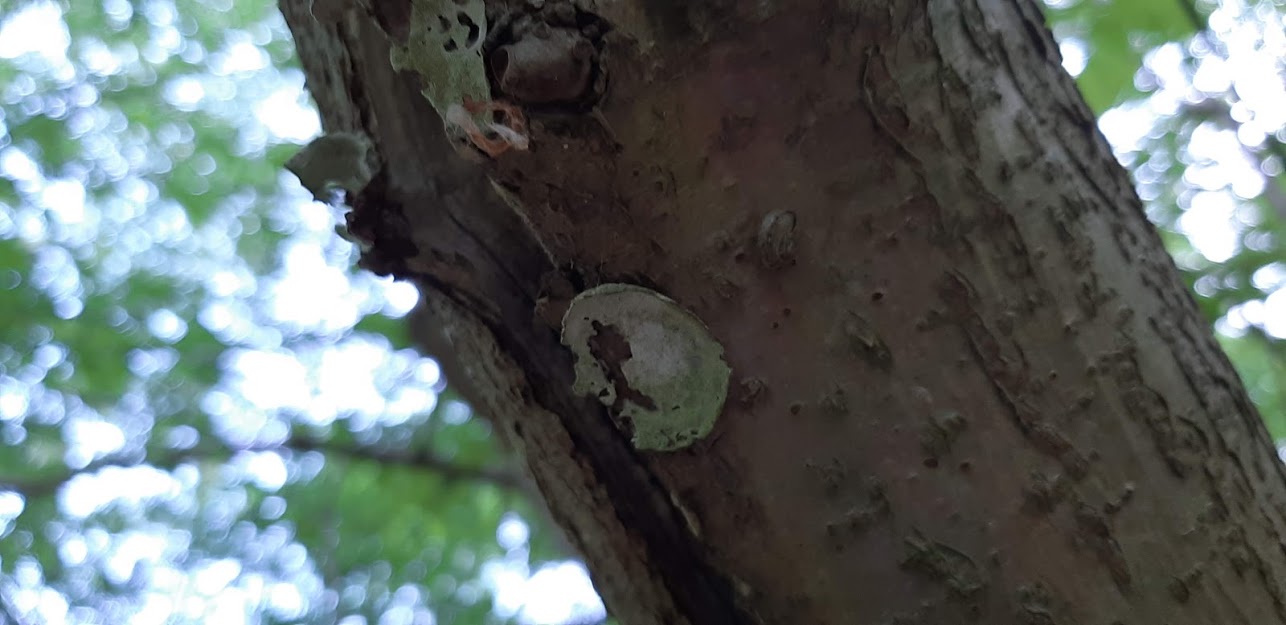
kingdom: Protozoa
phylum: Mycetozoa
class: Myxomycetes
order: Cribrariales
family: Tubiferaceae
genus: Reticularia
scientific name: Reticularia lycoperdon
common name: skinnende støvpude
